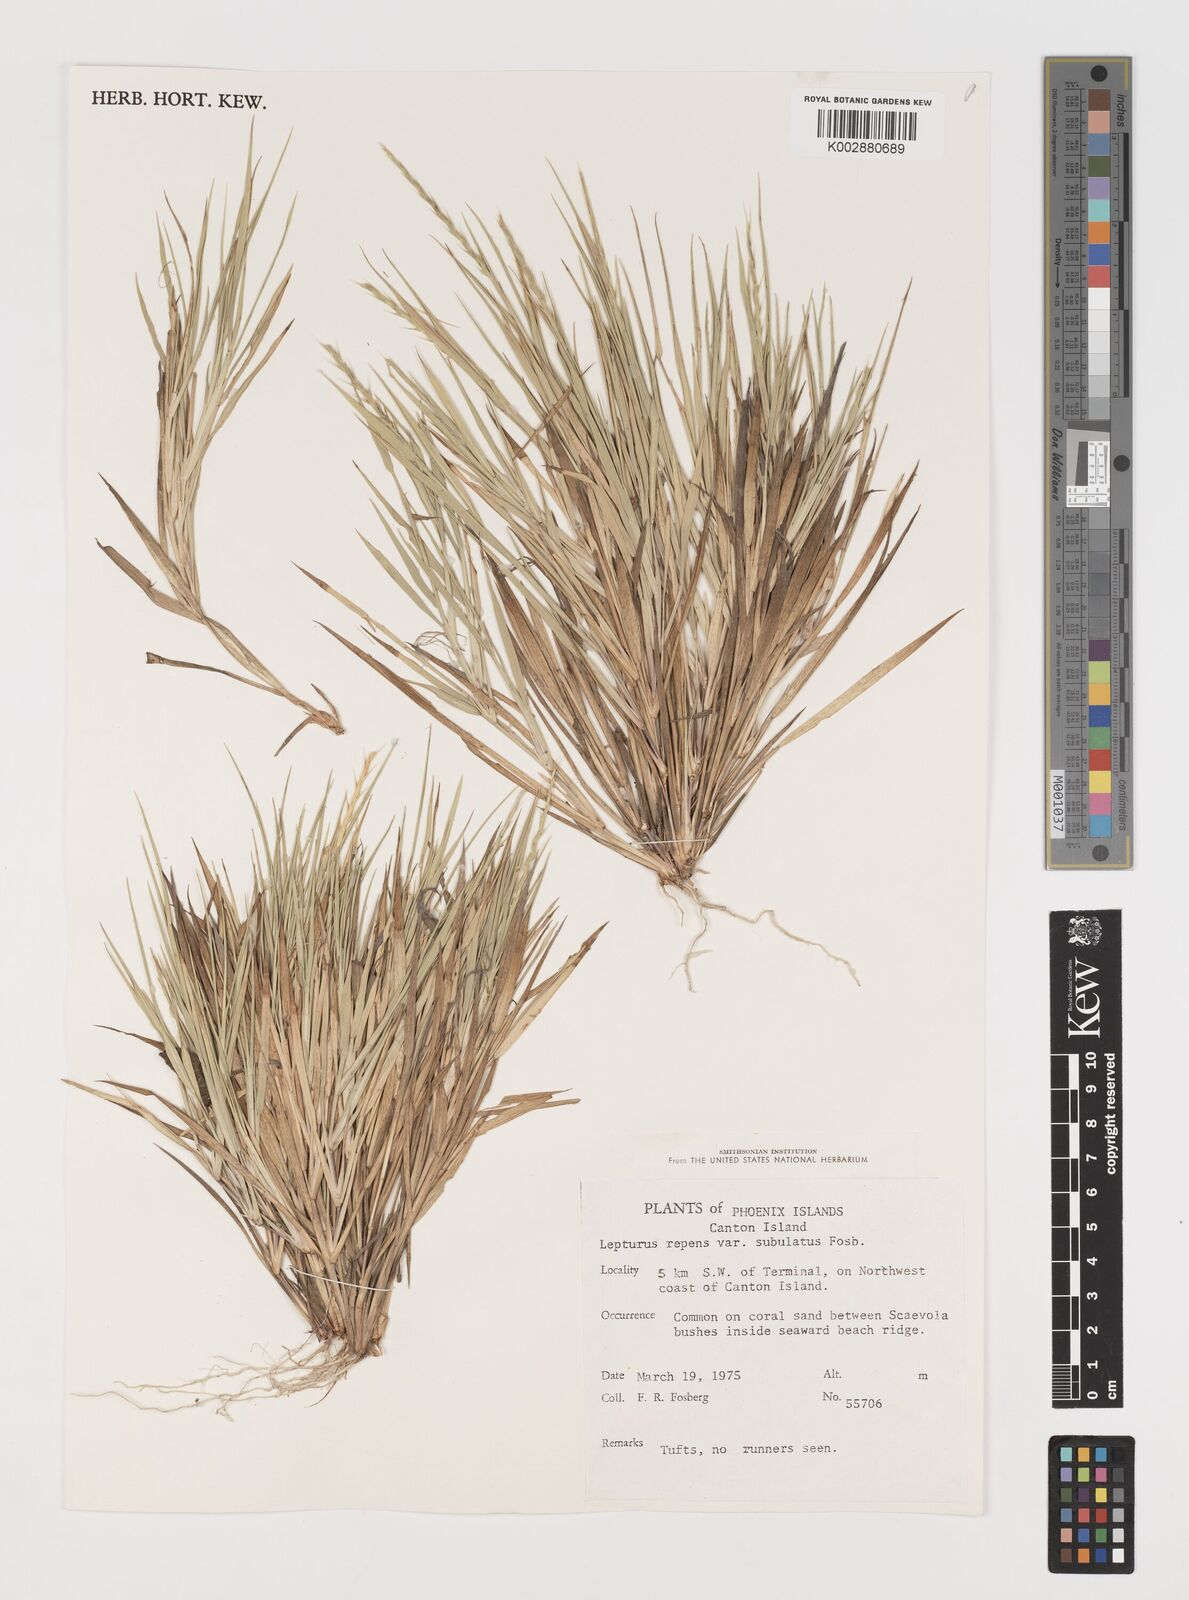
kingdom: Plantae
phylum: Tracheophyta
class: Liliopsida
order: Poales
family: Poaceae
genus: Lepturus
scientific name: Lepturus repens
